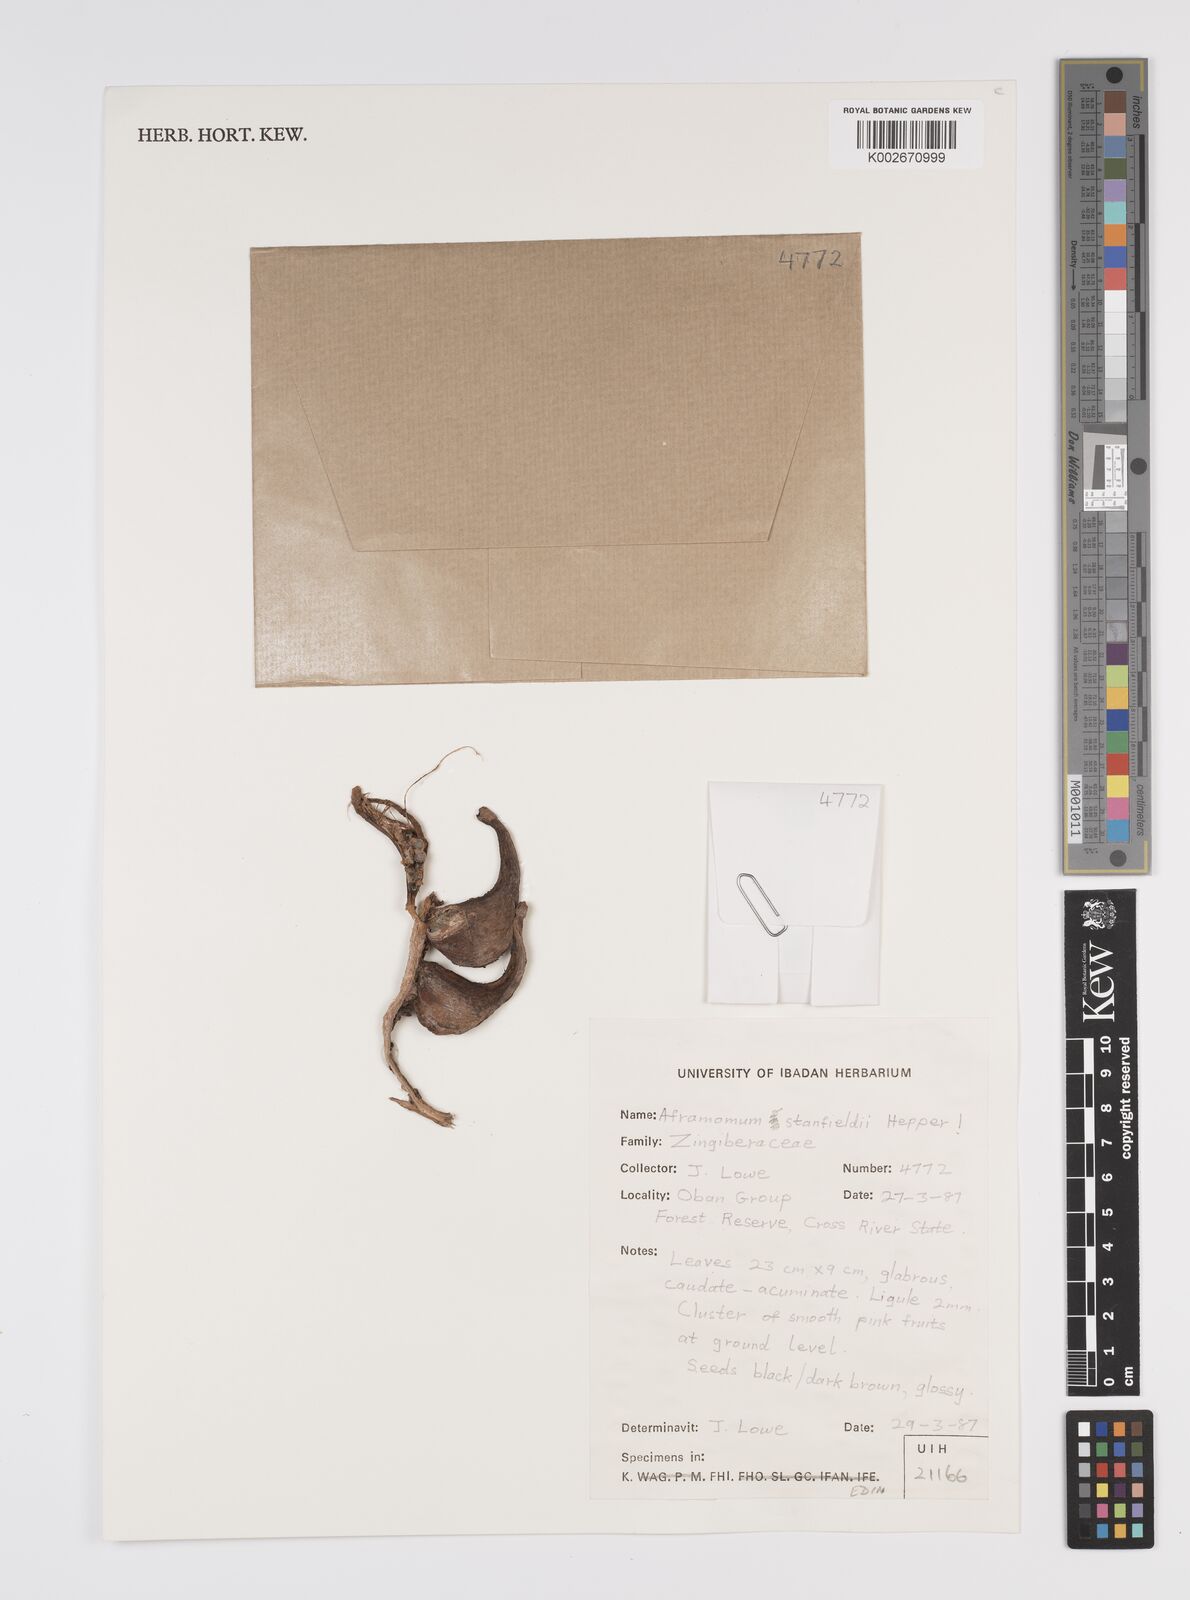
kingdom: Plantae
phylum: Tracheophyta
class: Liliopsida
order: Zingiberales
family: Zingiberaceae
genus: Aframomum
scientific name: Aframomum stanfieldii
